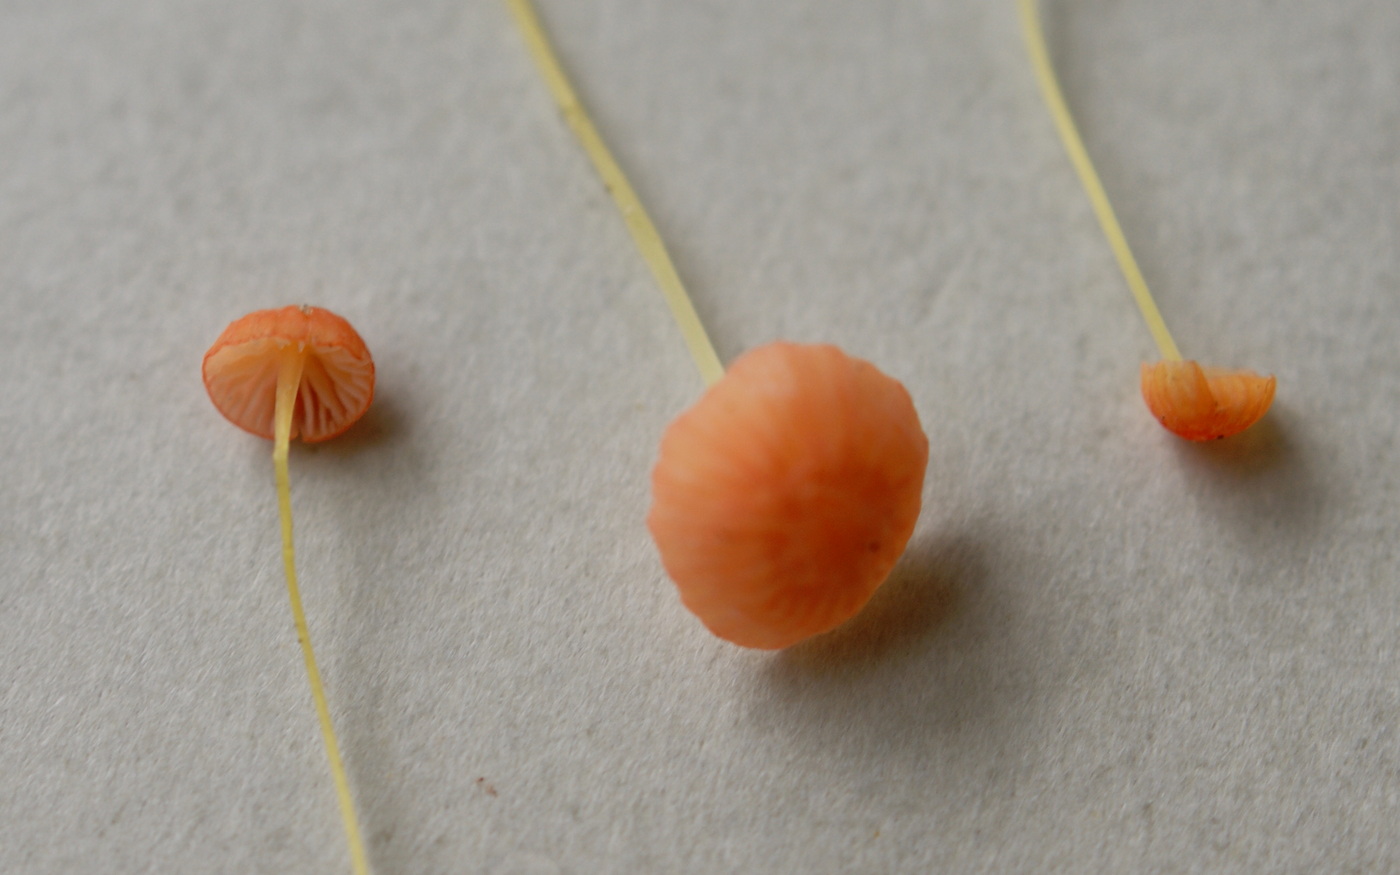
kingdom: Fungi
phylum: Basidiomycota
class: Agaricomycetes
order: Agaricales
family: Mycenaceae
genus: Mycena
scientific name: Mycena acicula
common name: orange huesvamp
